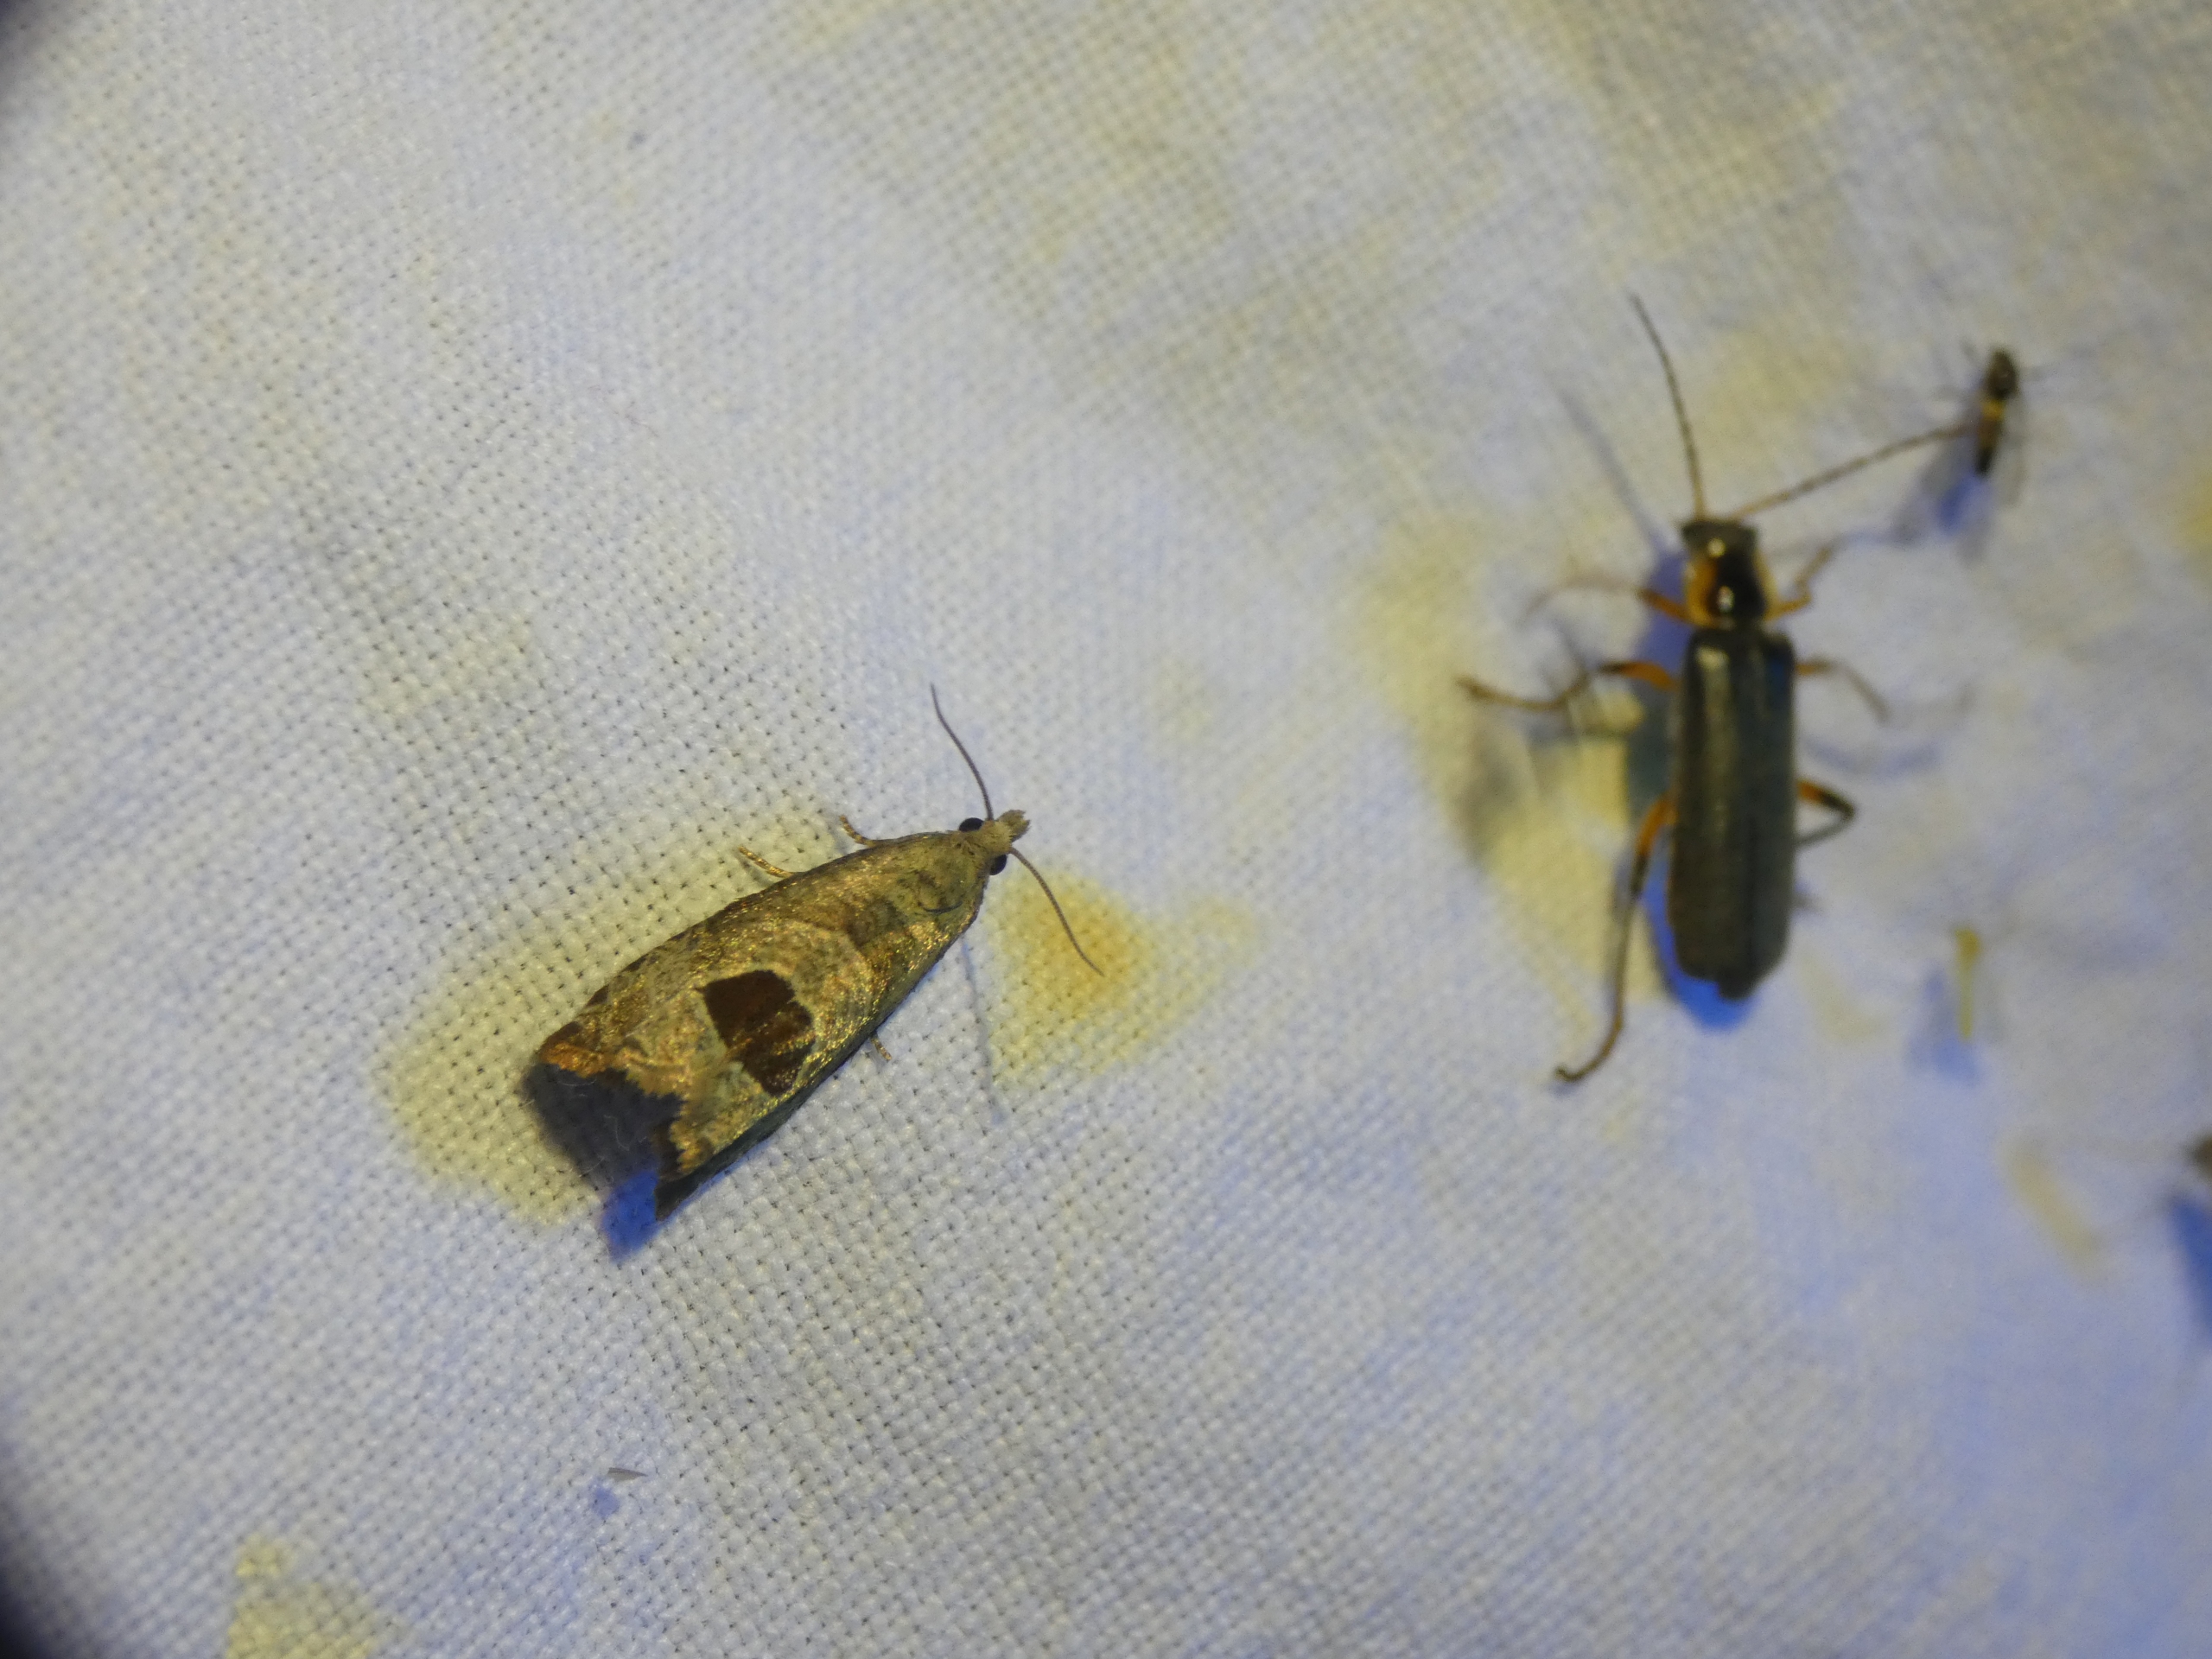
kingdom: Animalia
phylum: Arthropoda
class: Insecta
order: Lepidoptera
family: Tortricidae
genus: Notocelia
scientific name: Notocelia uddmanniana
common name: Brombærvikler
